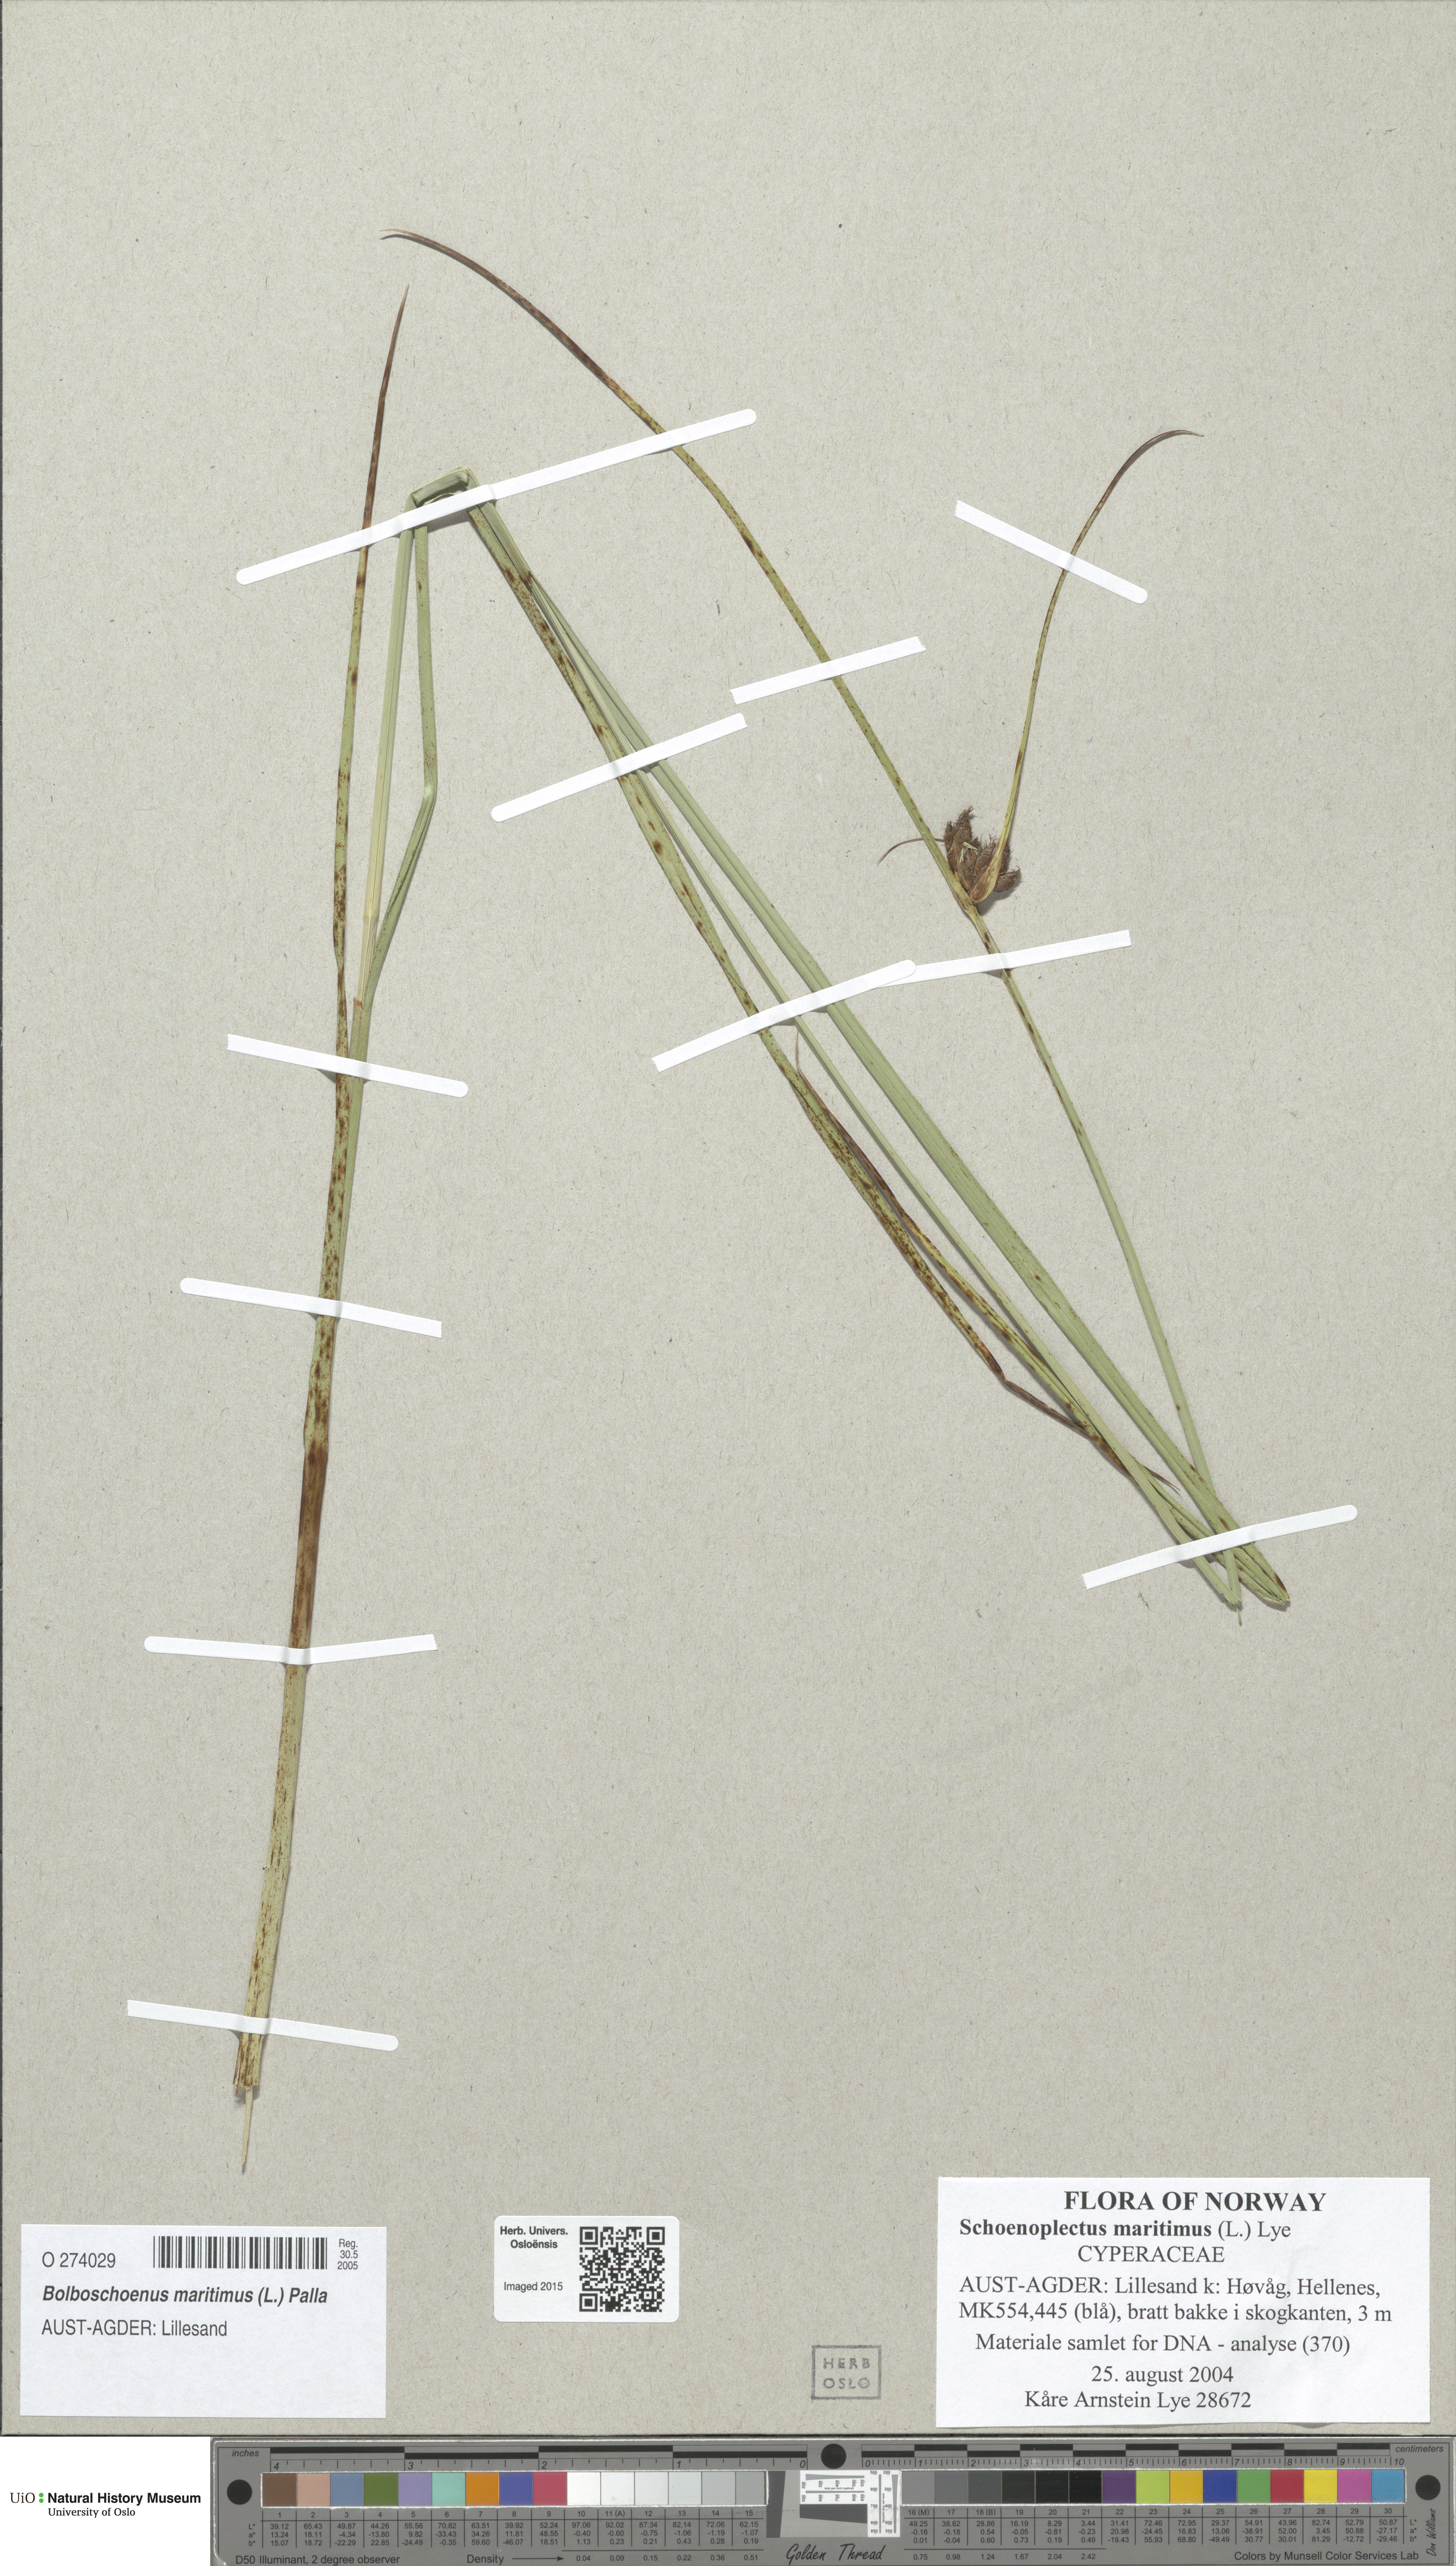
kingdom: Plantae
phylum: Tracheophyta
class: Liliopsida
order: Poales
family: Cyperaceae
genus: Bolboschoenus
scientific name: Bolboschoenus maritimus
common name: Sea club-rush
